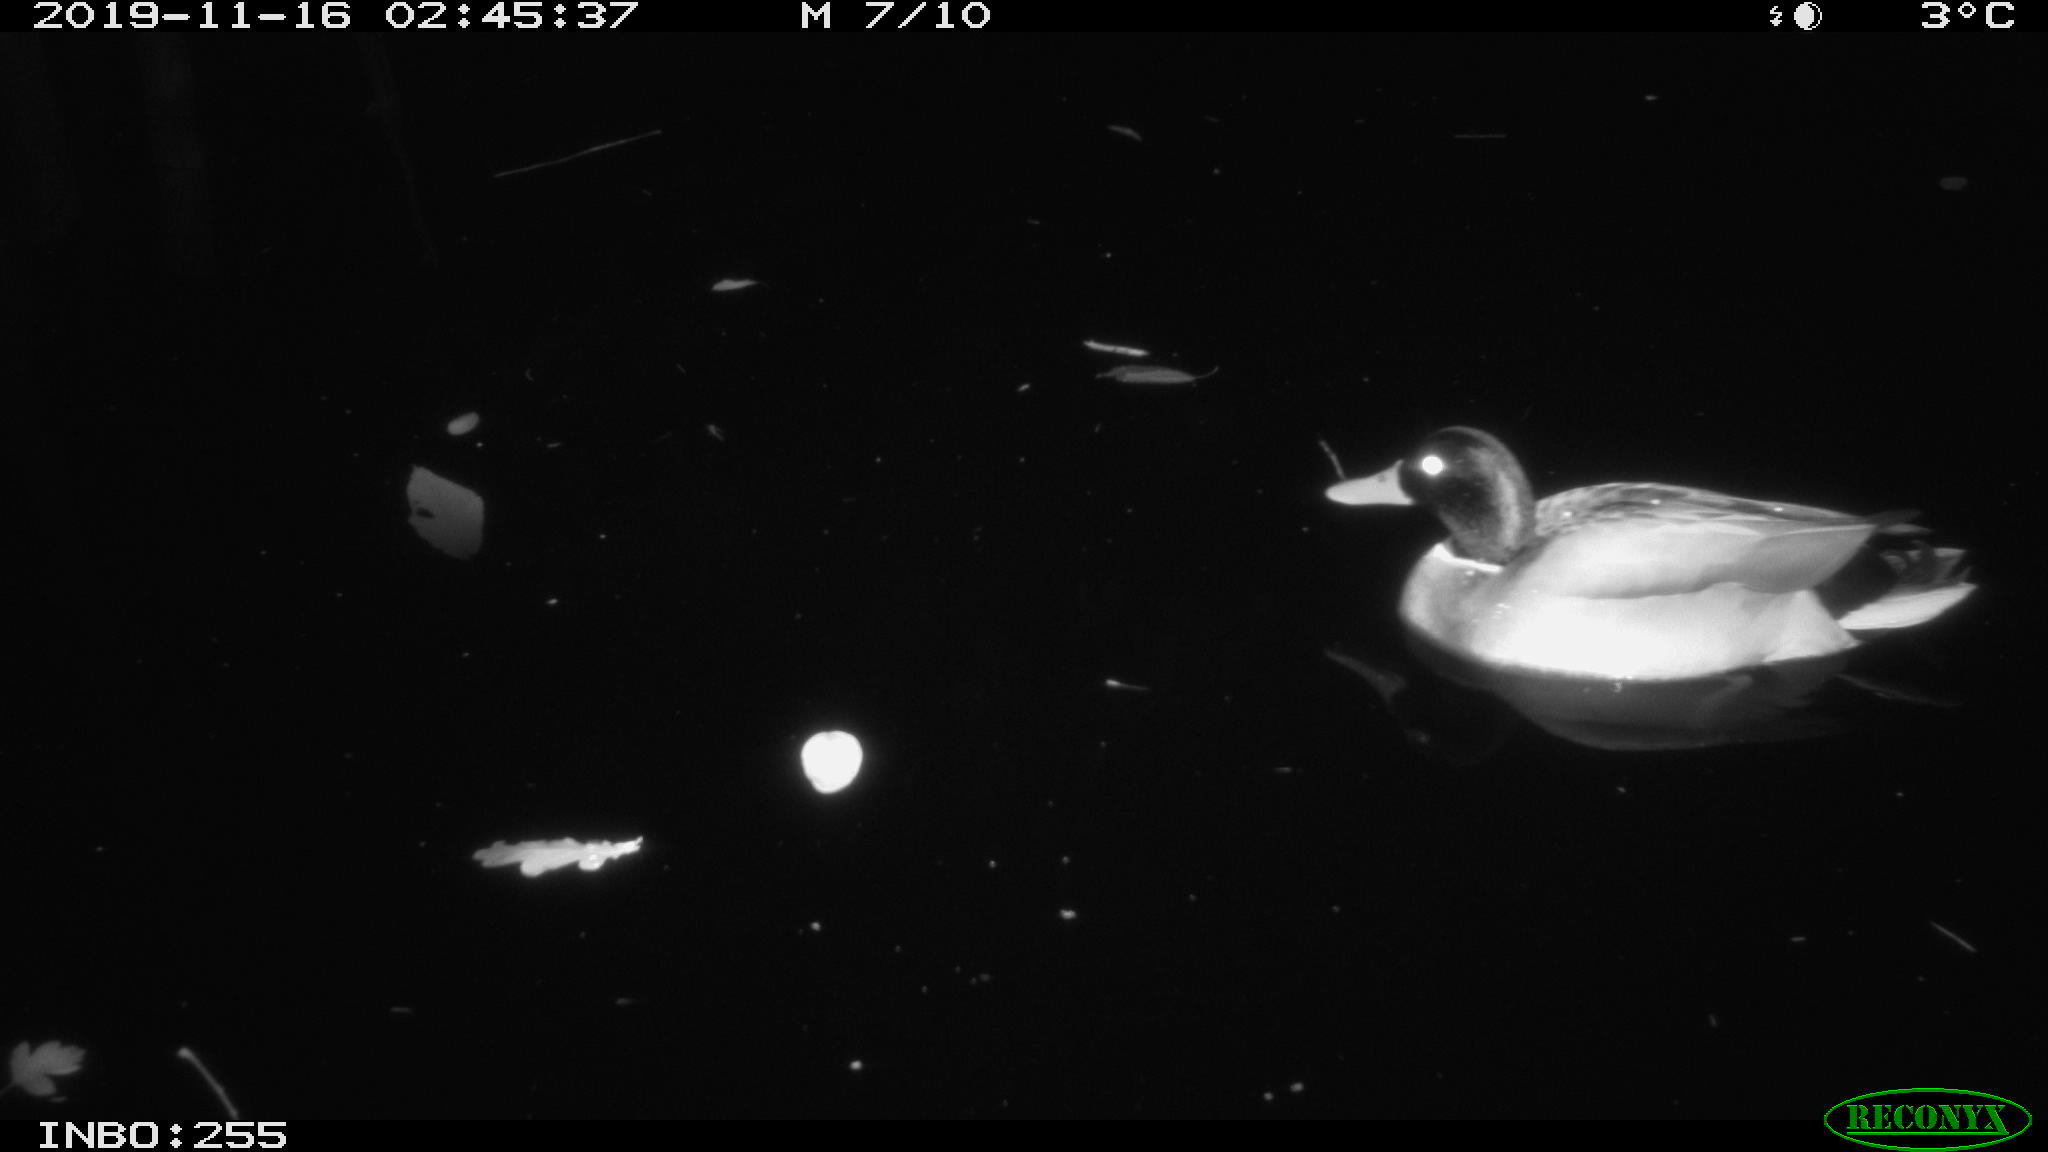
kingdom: Animalia
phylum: Chordata
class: Aves
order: Anseriformes
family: Anatidae
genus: Anas
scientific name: Anas platyrhynchos
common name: Mallard
